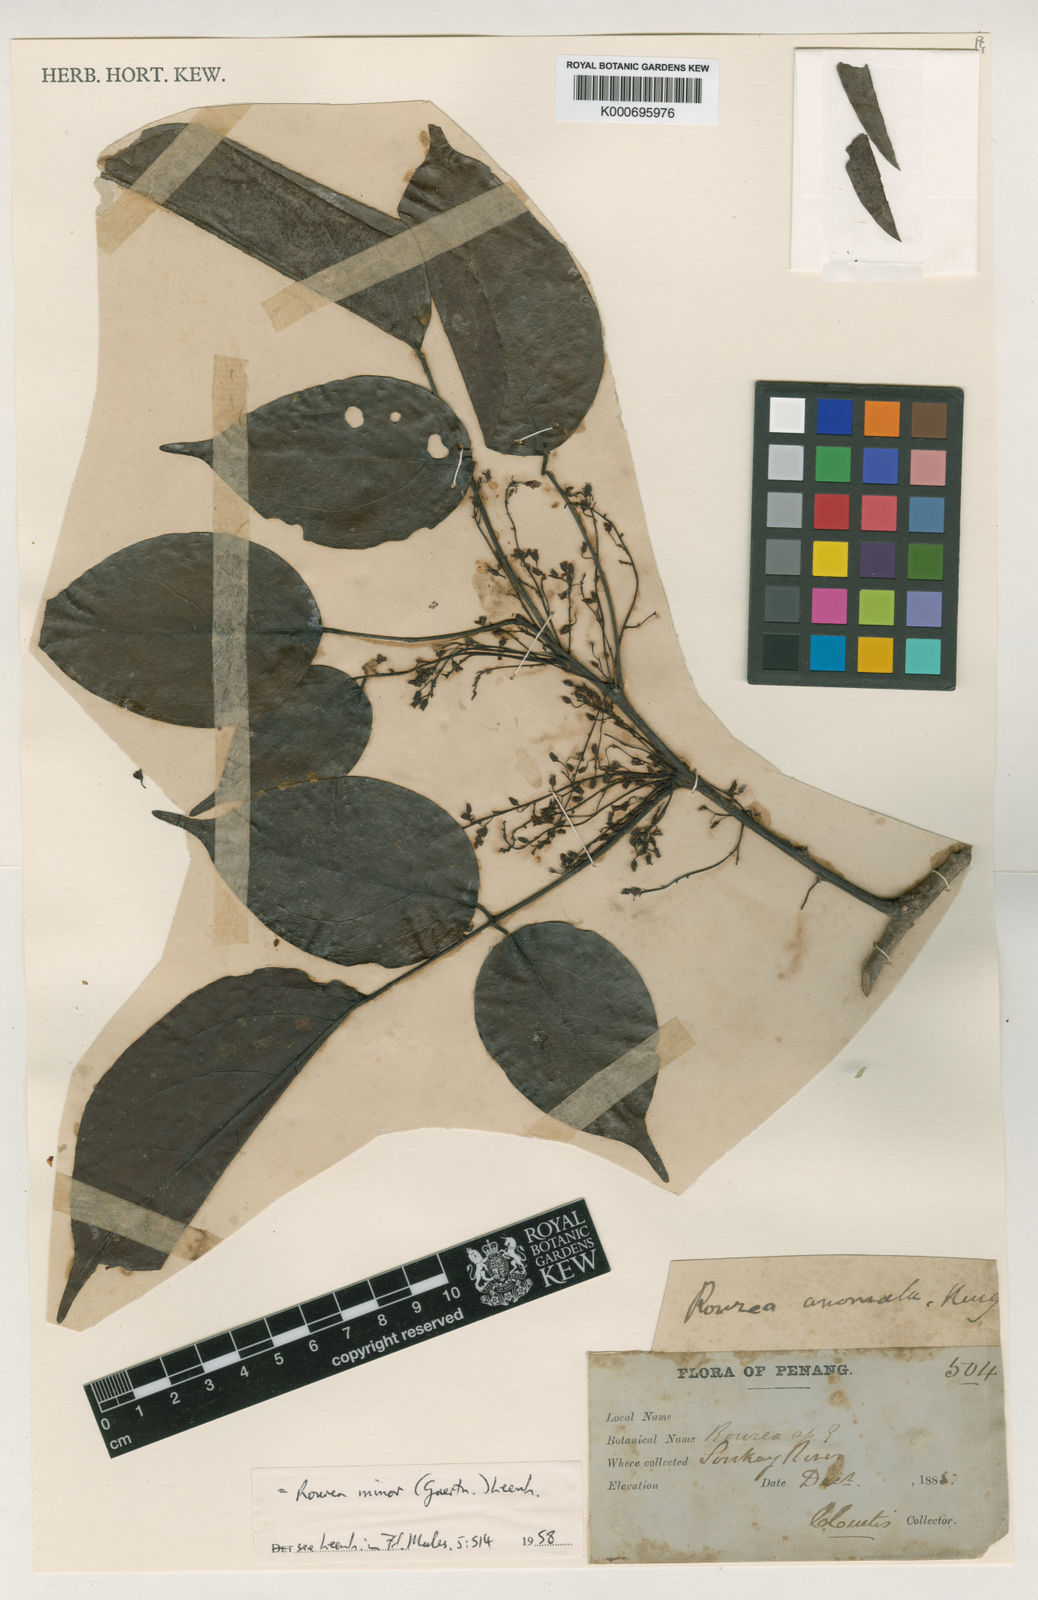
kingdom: Plantae
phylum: Tracheophyta
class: Magnoliopsida
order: Oxalidales
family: Connaraceae
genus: Rourea
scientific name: Rourea
